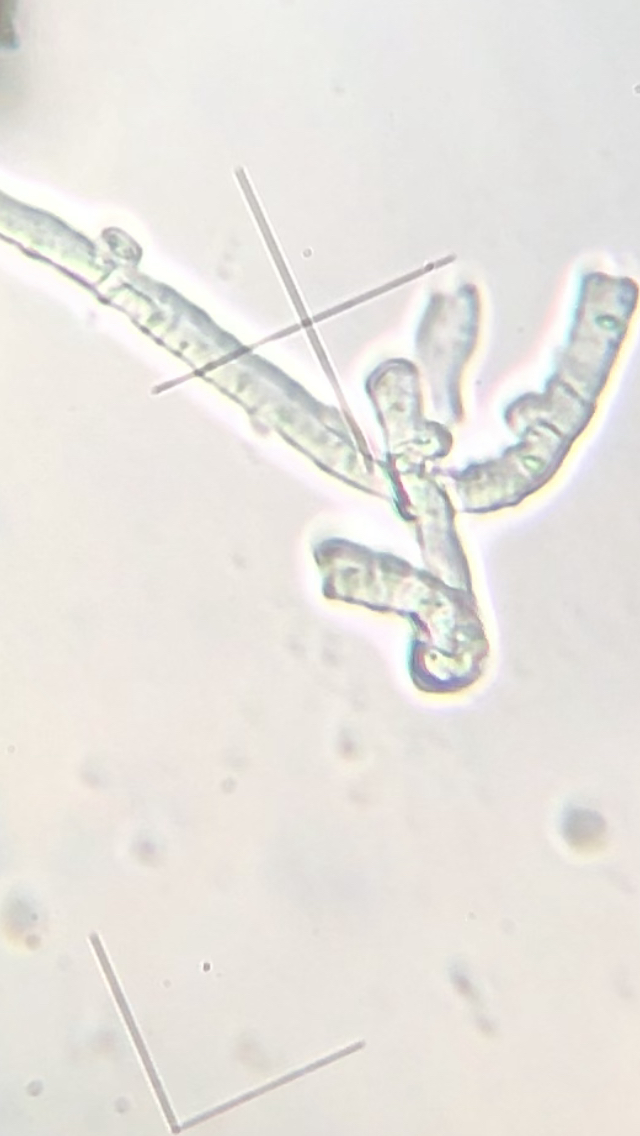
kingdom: Fungi
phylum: Basidiomycota
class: Agaricomycetes
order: Agaricales
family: Cyphellaceae
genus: Granulobasidium
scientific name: Granulobasidium vellereum
